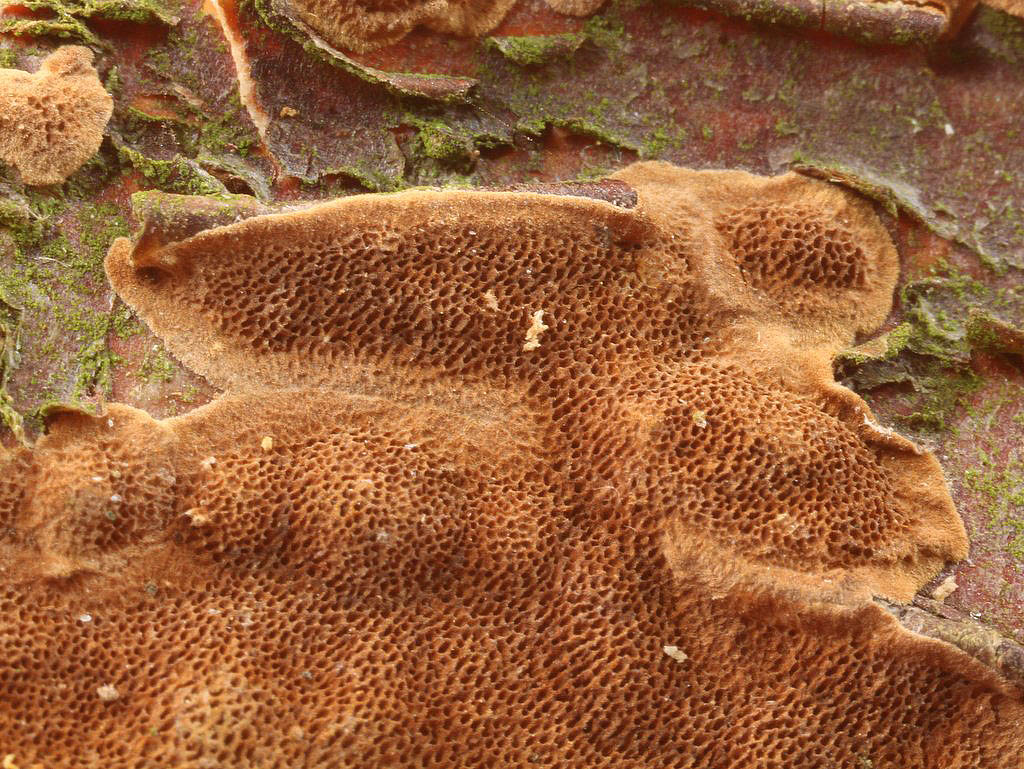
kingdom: Fungi
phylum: Basidiomycota
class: Agaricomycetes
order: Hymenochaetales
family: Hymenochaetaceae
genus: Fuscoporia
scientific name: Fuscoporia ferruginosa
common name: rustbrun ildporesvamp
